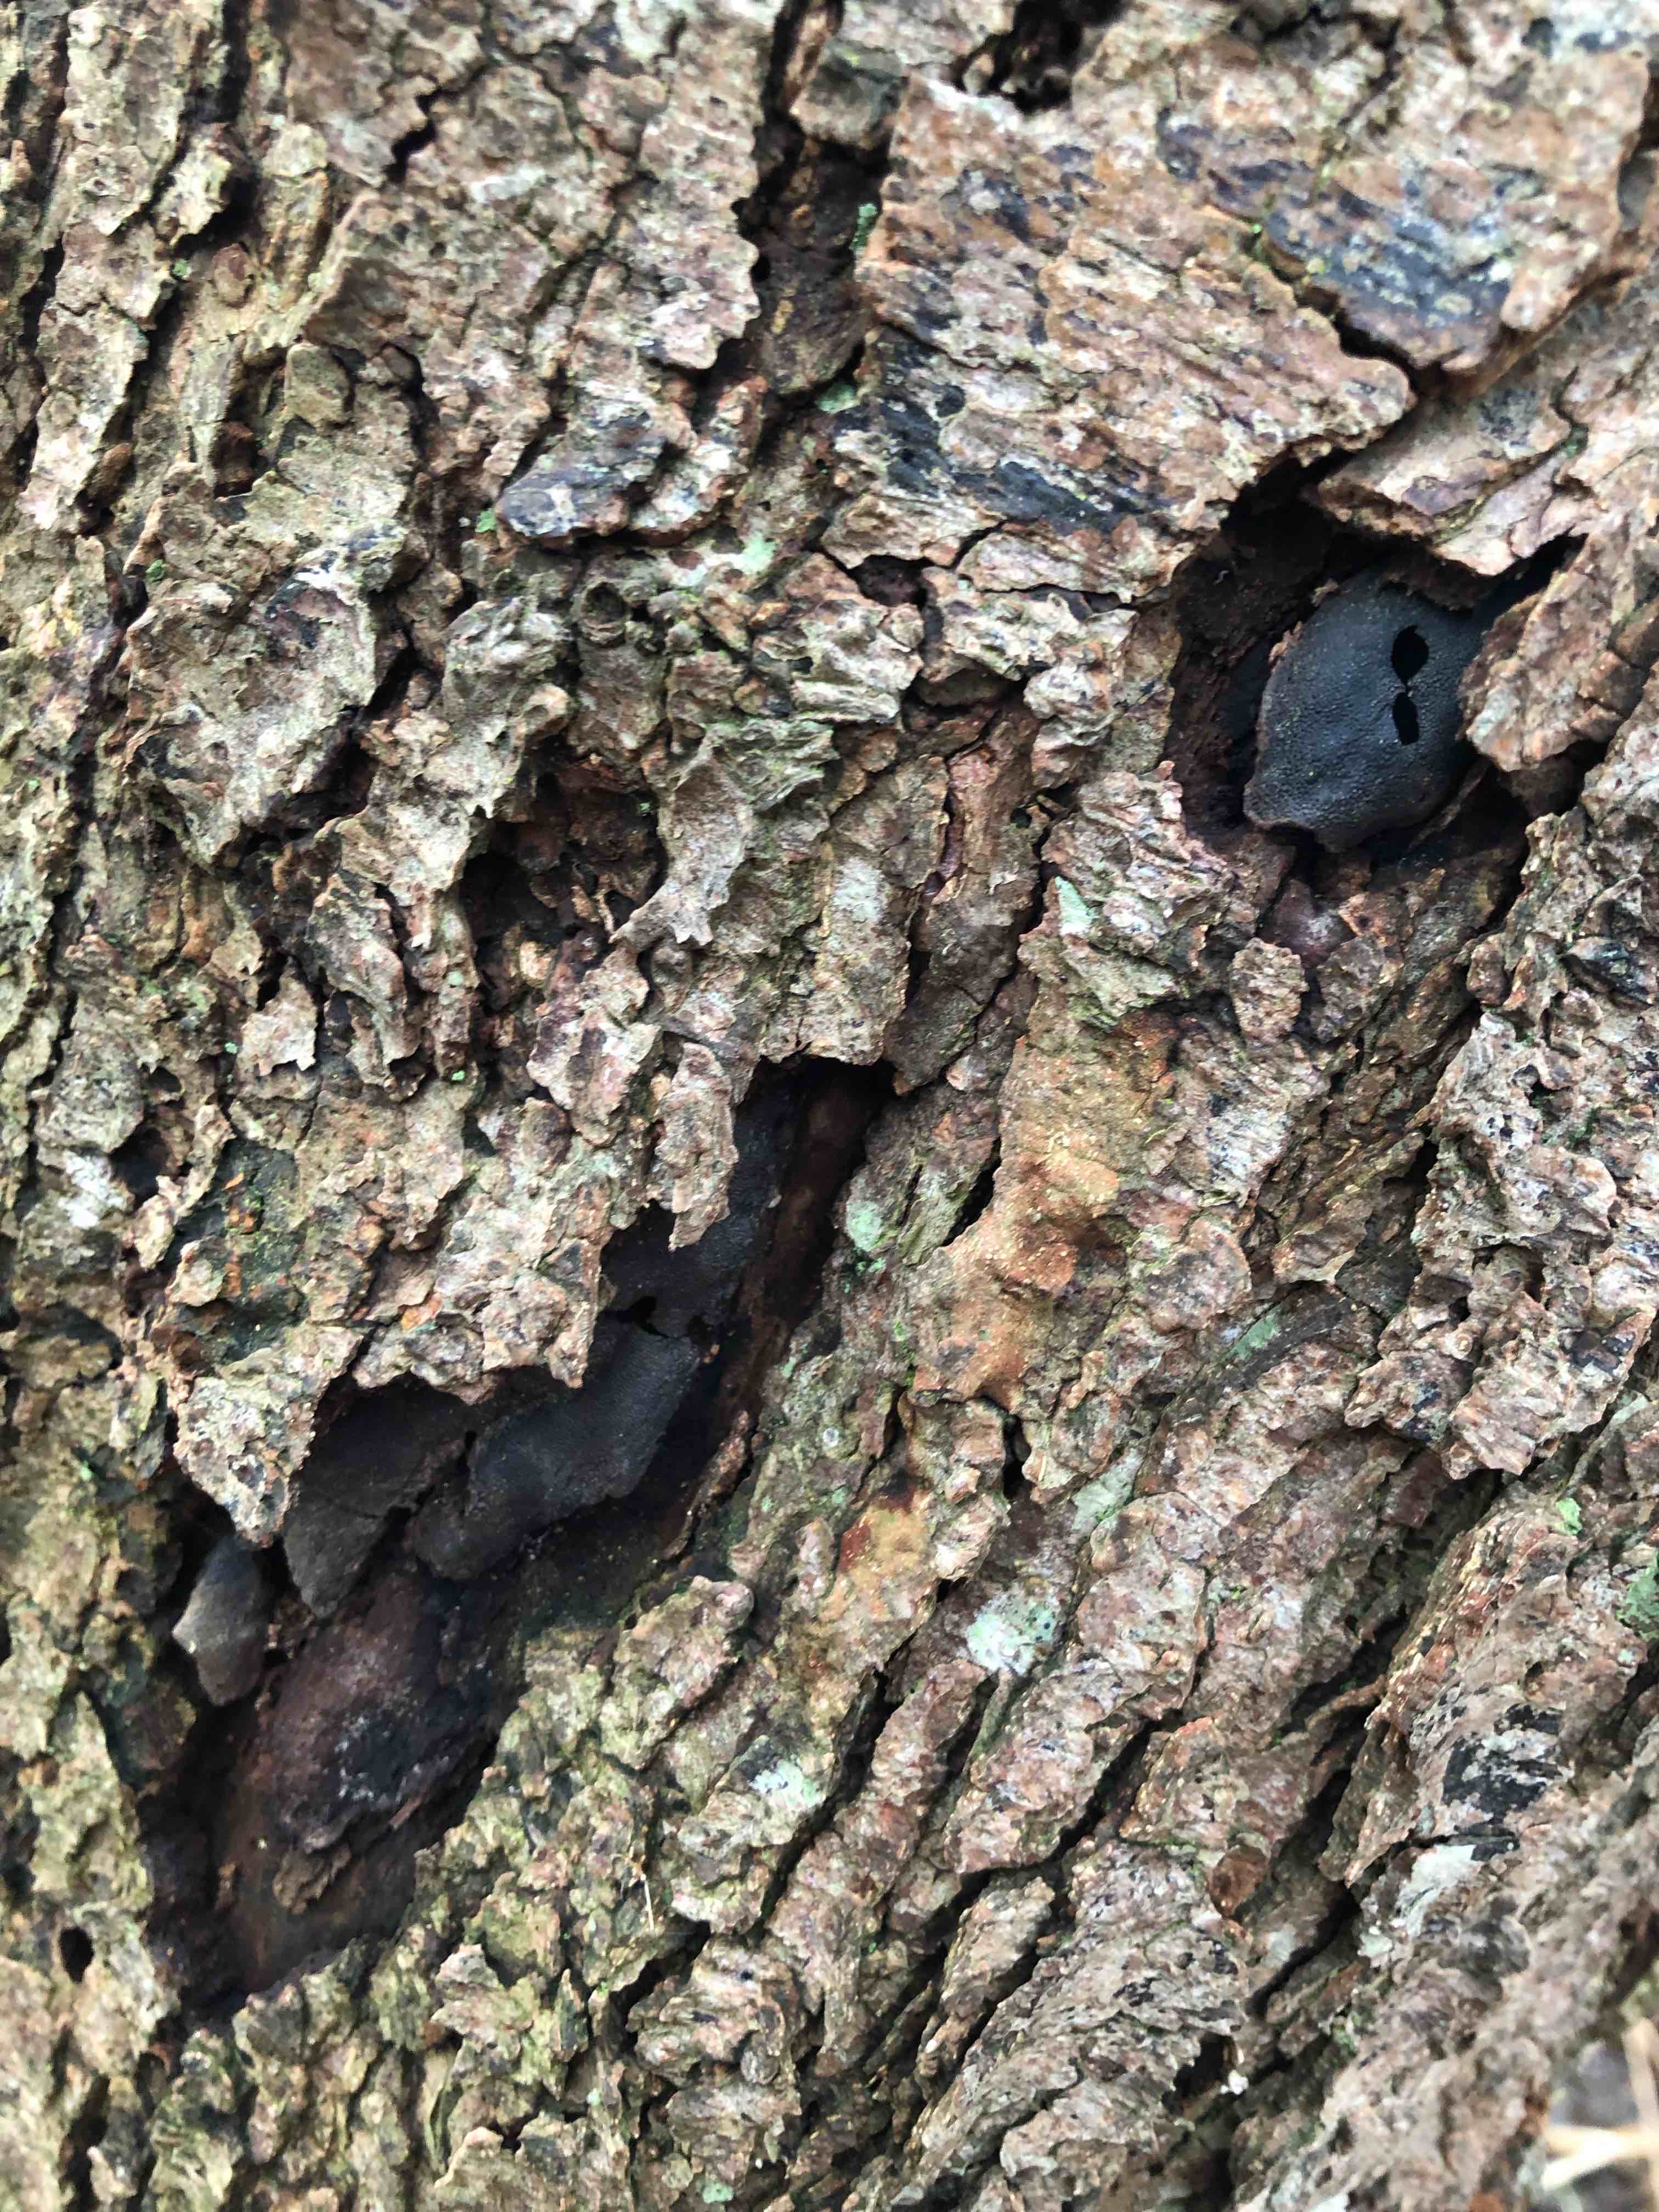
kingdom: Fungi
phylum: Ascomycota
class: Sordariomycetes
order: Boliniales
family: Boliniaceae
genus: Camarops
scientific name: Camarops polysperma
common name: elle-kulsnegl
